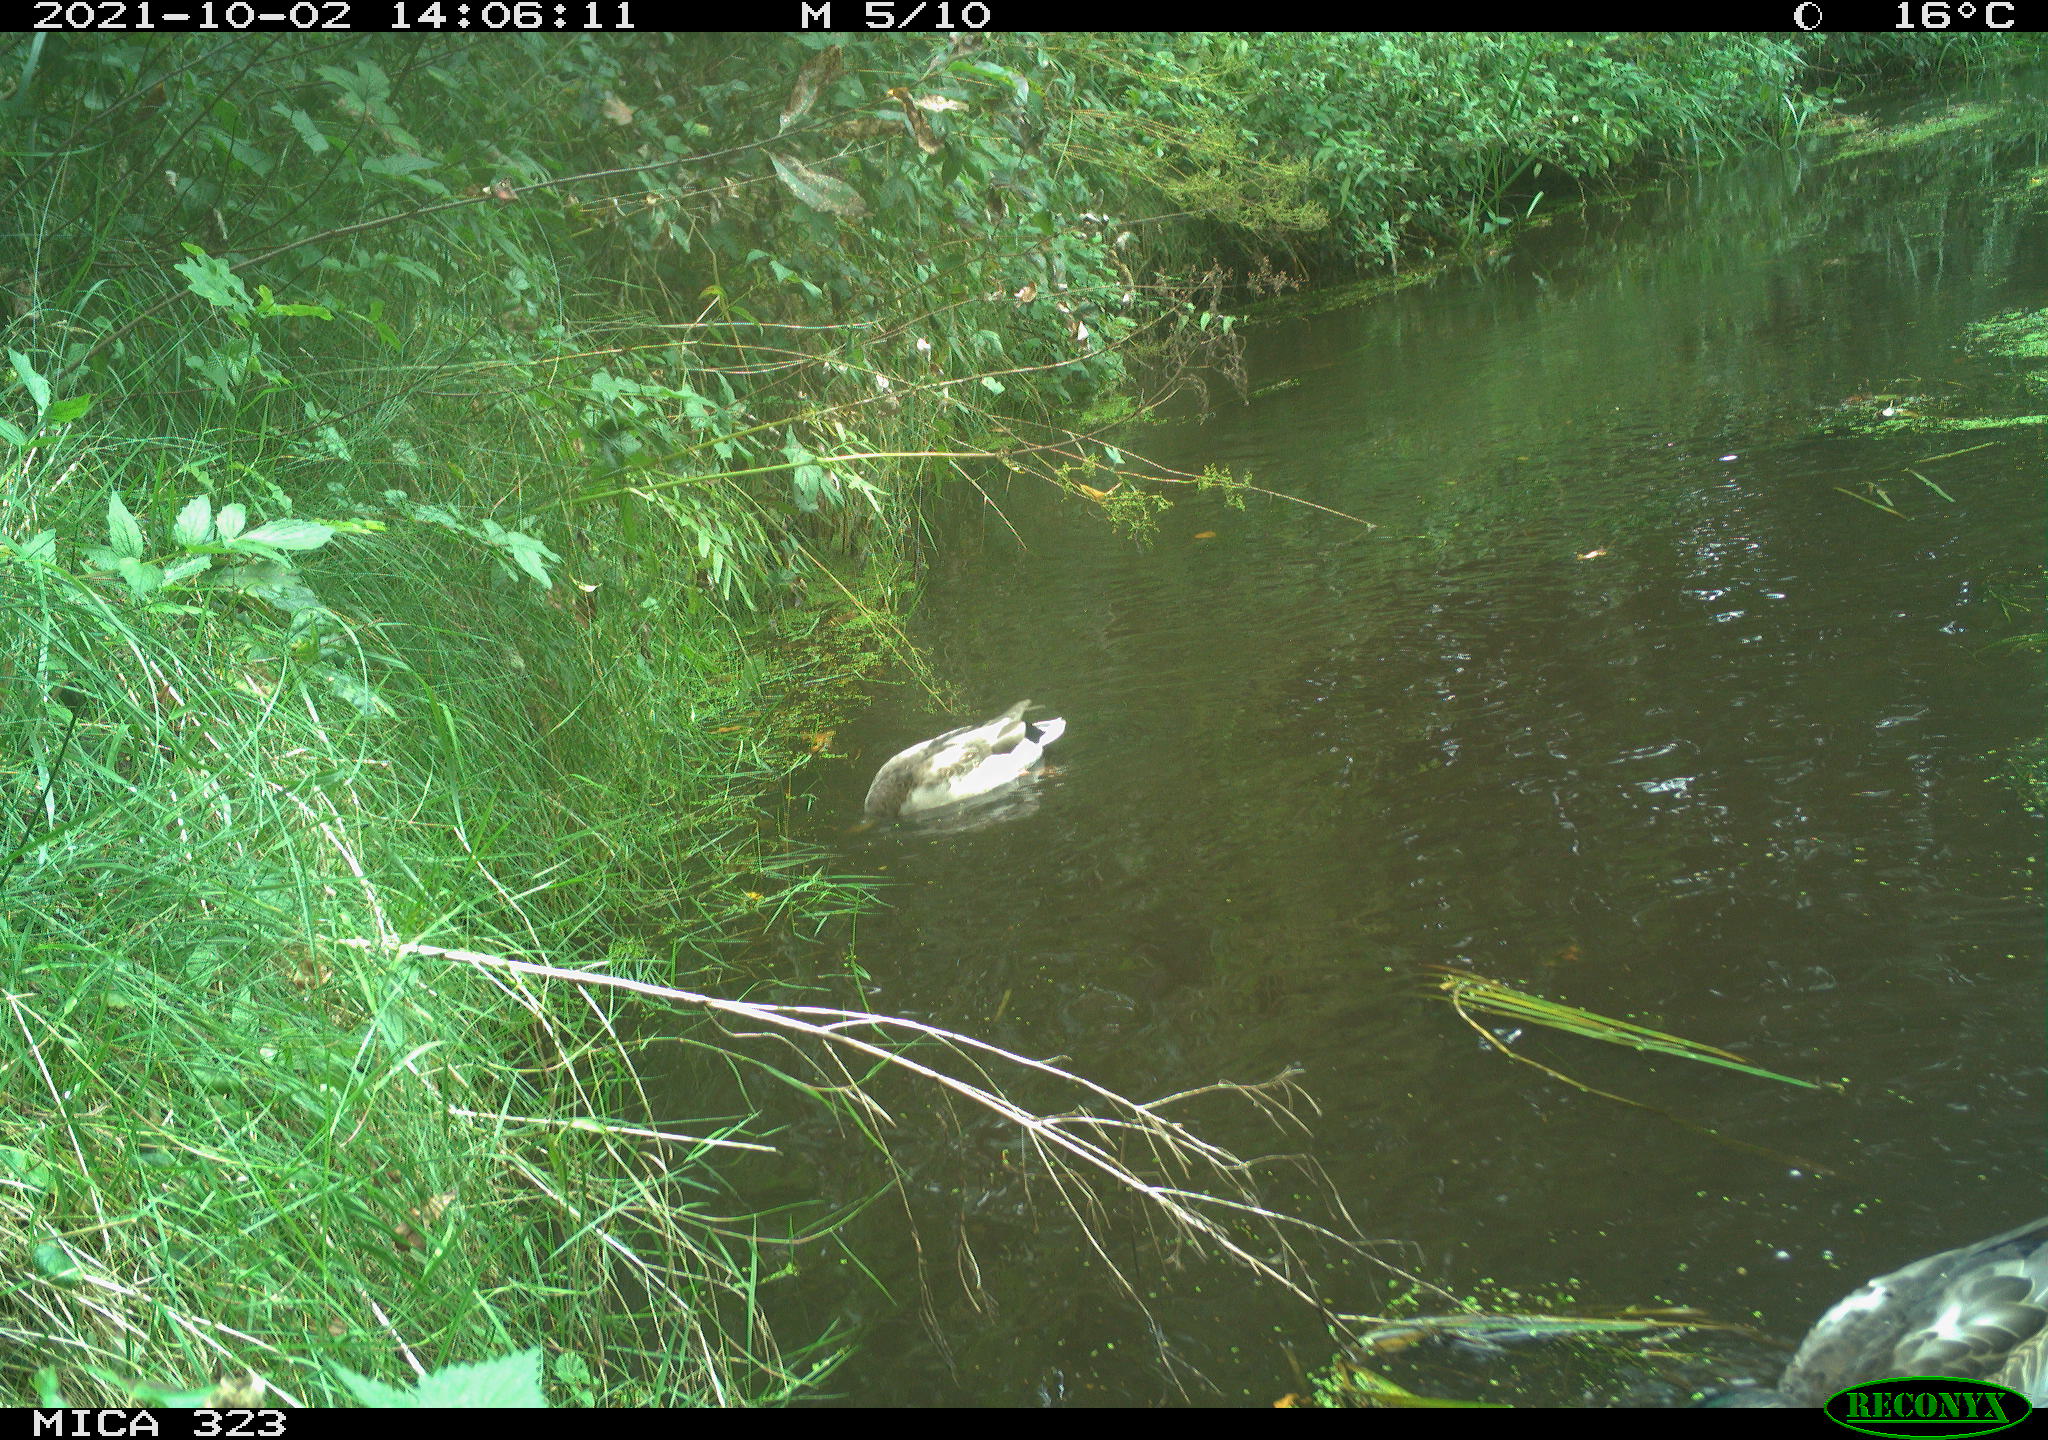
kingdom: Animalia
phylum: Chordata
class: Aves
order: Anseriformes
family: Anatidae
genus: Anas
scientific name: Anas platyrhynchos
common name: Mallard
